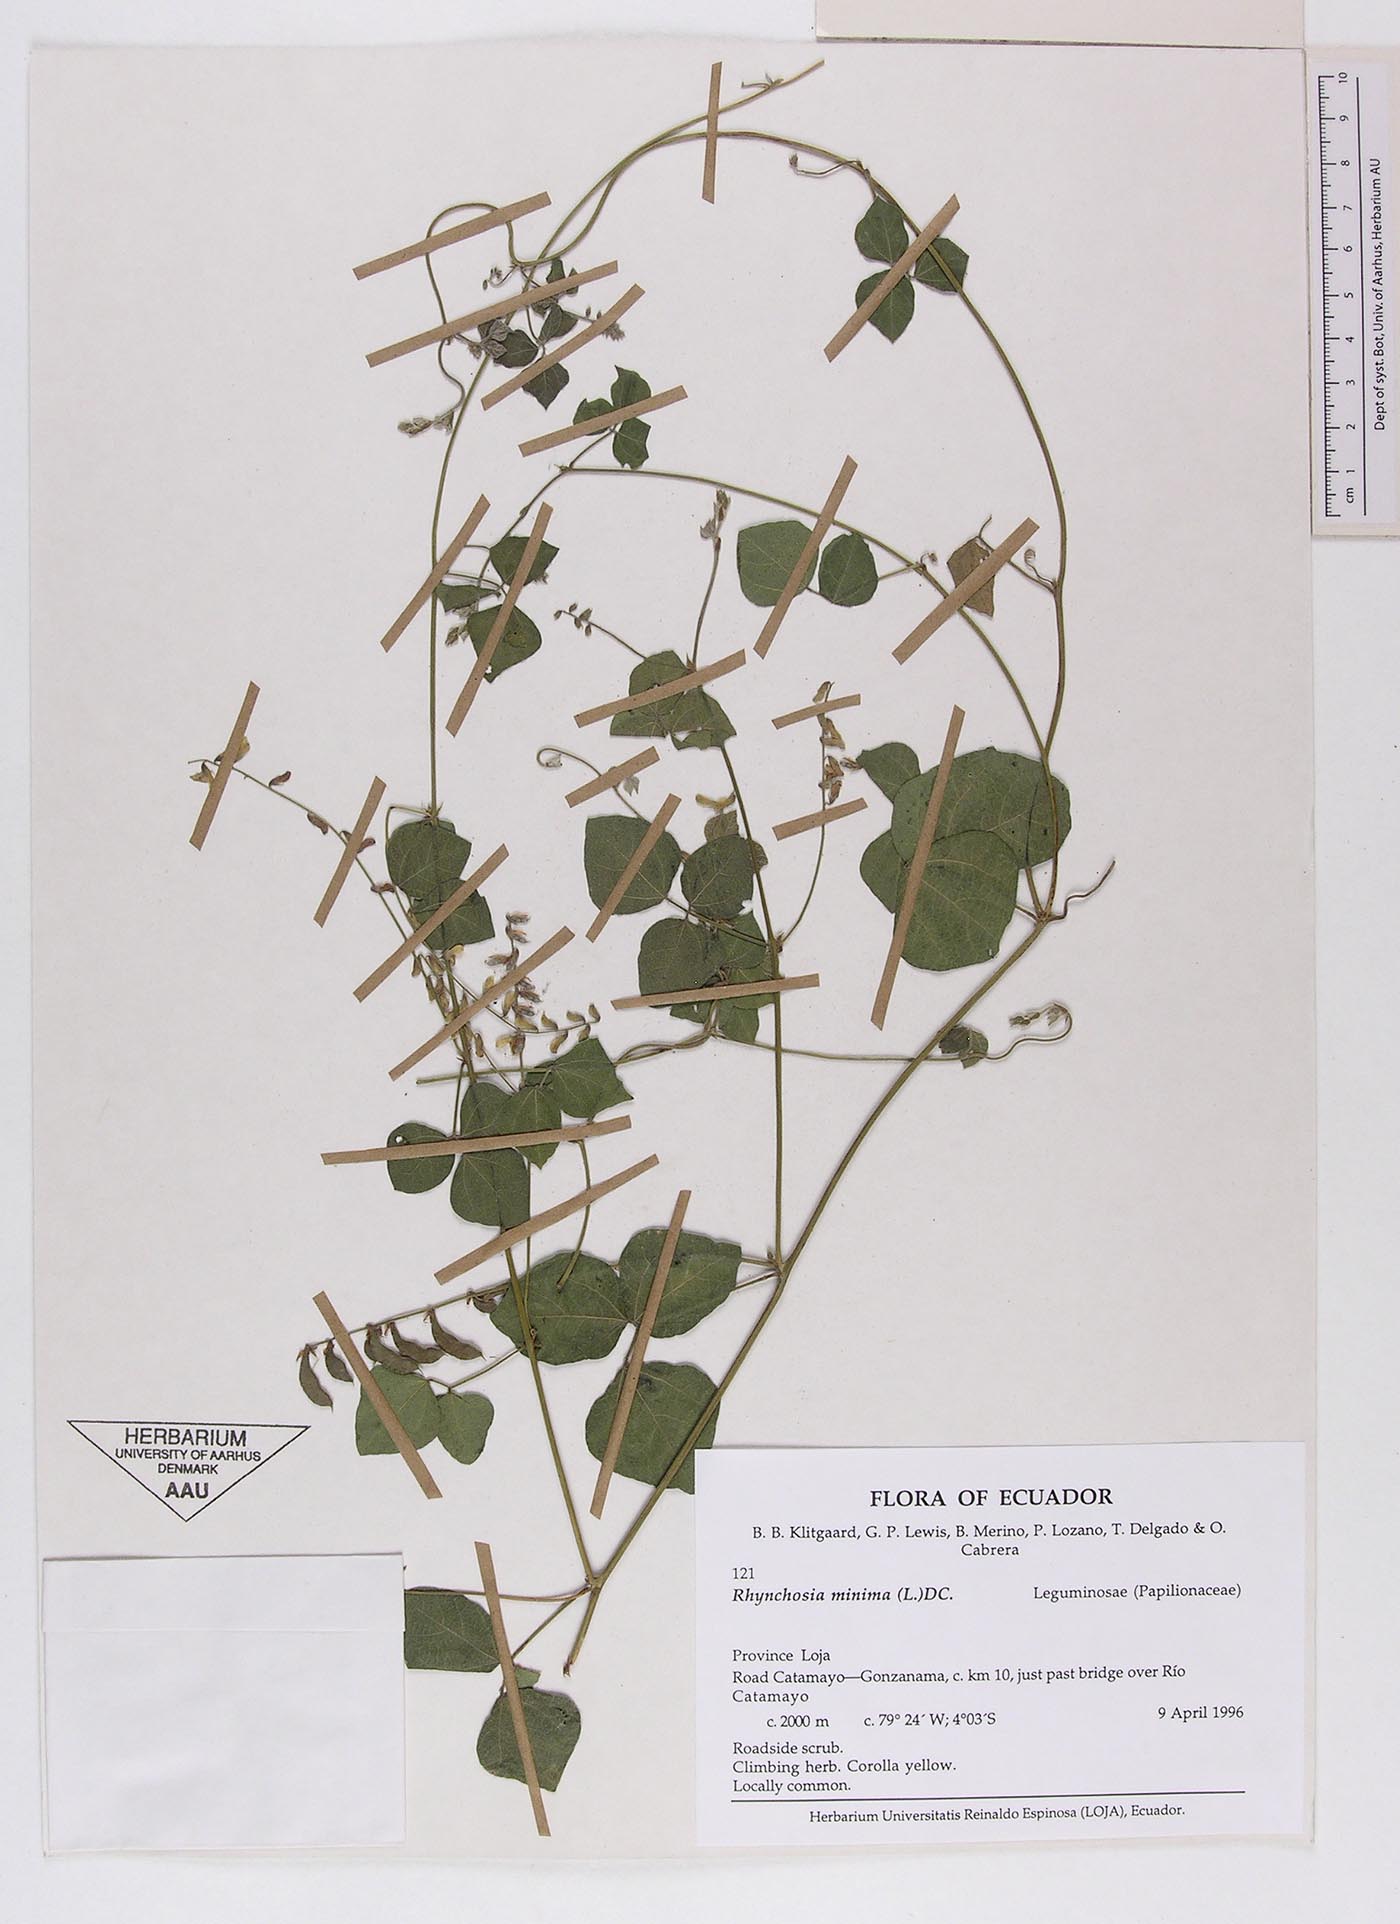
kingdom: Plantae
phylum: Tracheophyta
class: Magnoliopsida
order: Fabales
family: Fabaceae
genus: Rhynchosia
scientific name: Rhynchosia minima
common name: Least snoutbean
